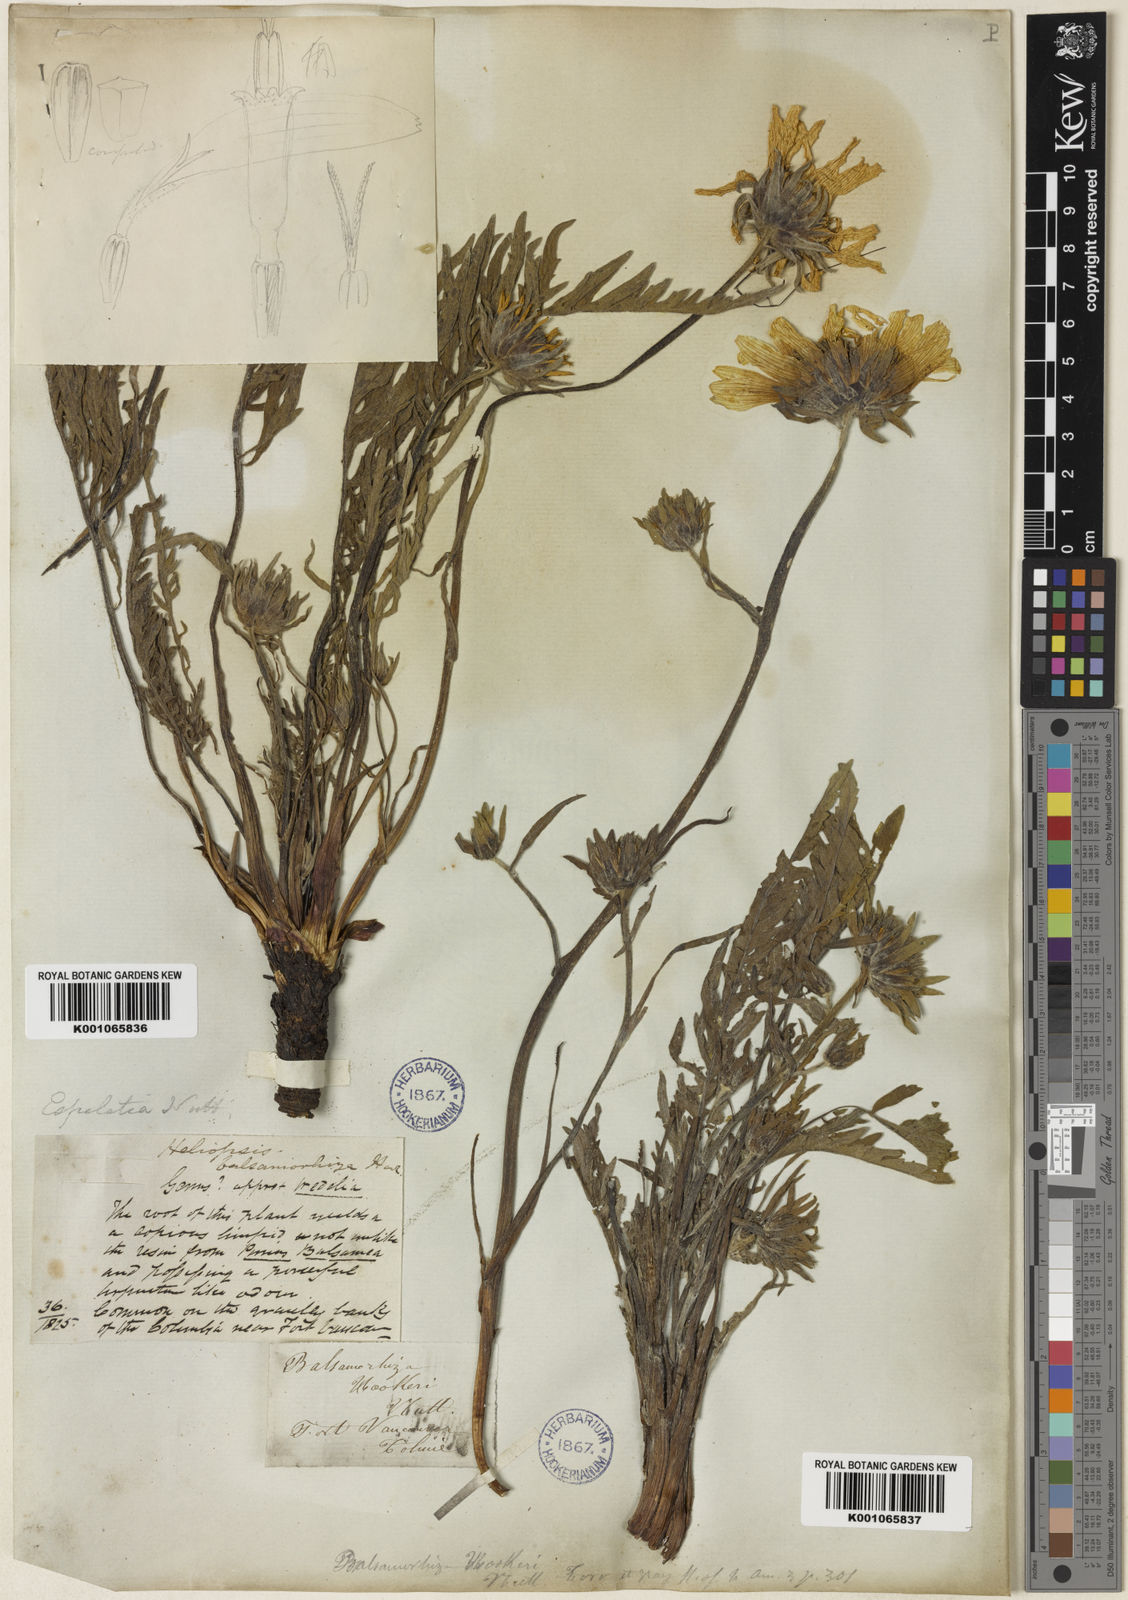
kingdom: Plantae
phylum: Tracheophyta
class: Magnoliopsida
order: Asterales
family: Asteraceae
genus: Balsamorhiza
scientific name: Balsamorhiza hookeri
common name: Hooker's balsamroot
